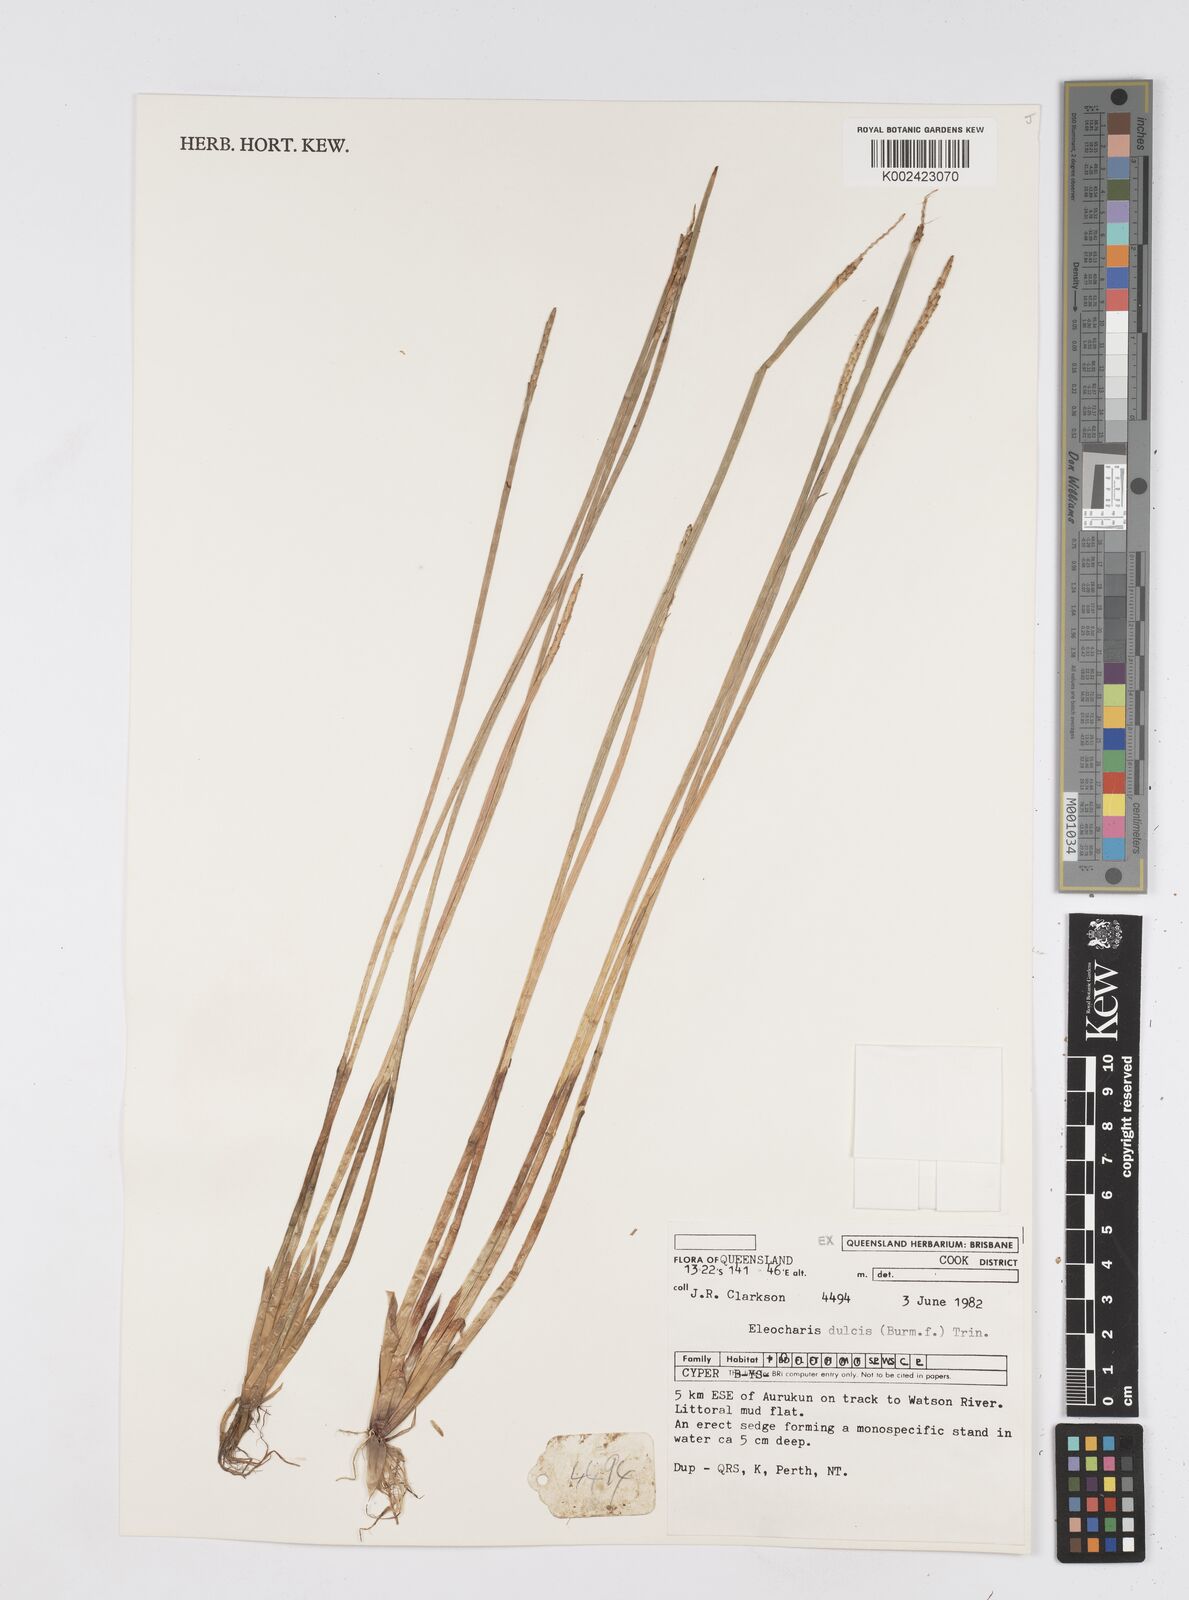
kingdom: Plantae
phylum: Tracheophyta
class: Liliopsida
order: Poales
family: Cyperaceae
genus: Eleocharis
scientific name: Eleocharis dulcis
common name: Chinese water chestnut
